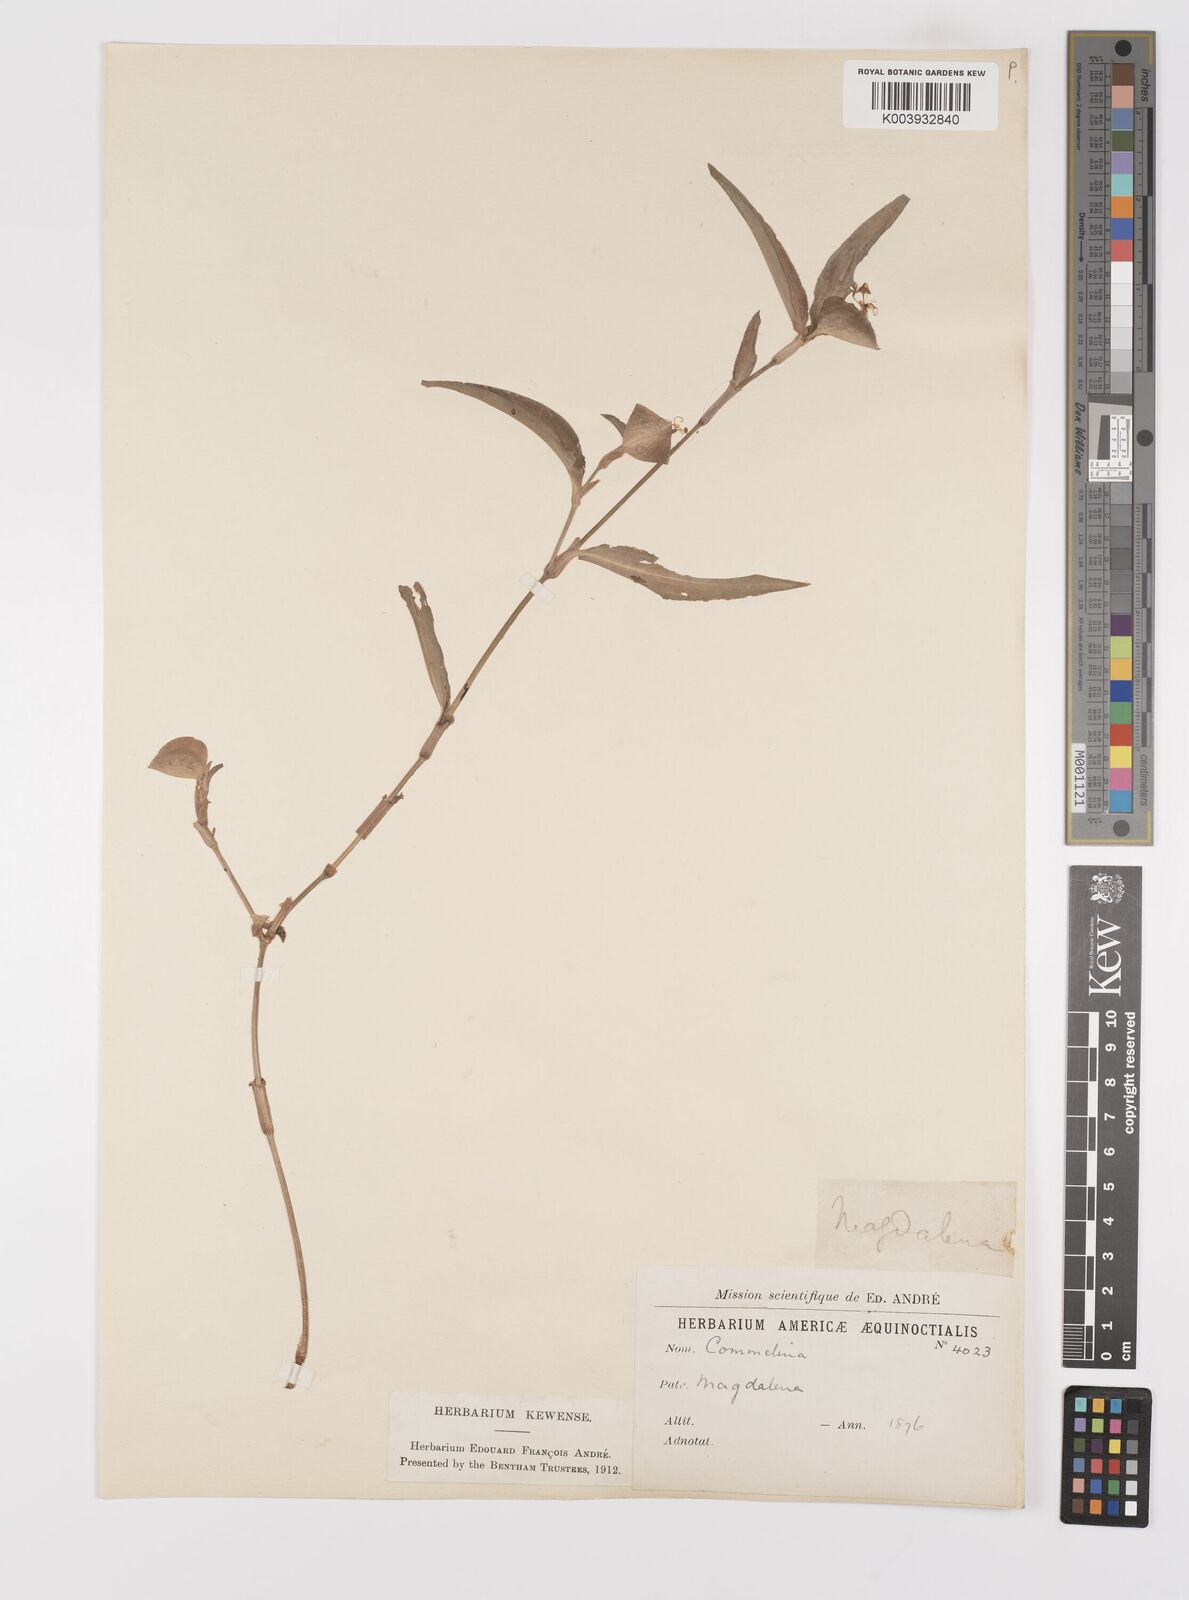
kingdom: Plantae
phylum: Tracheophyta
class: Liliopsida
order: Commelinales
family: Commelinaceae
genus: Commelina
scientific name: Commelina
